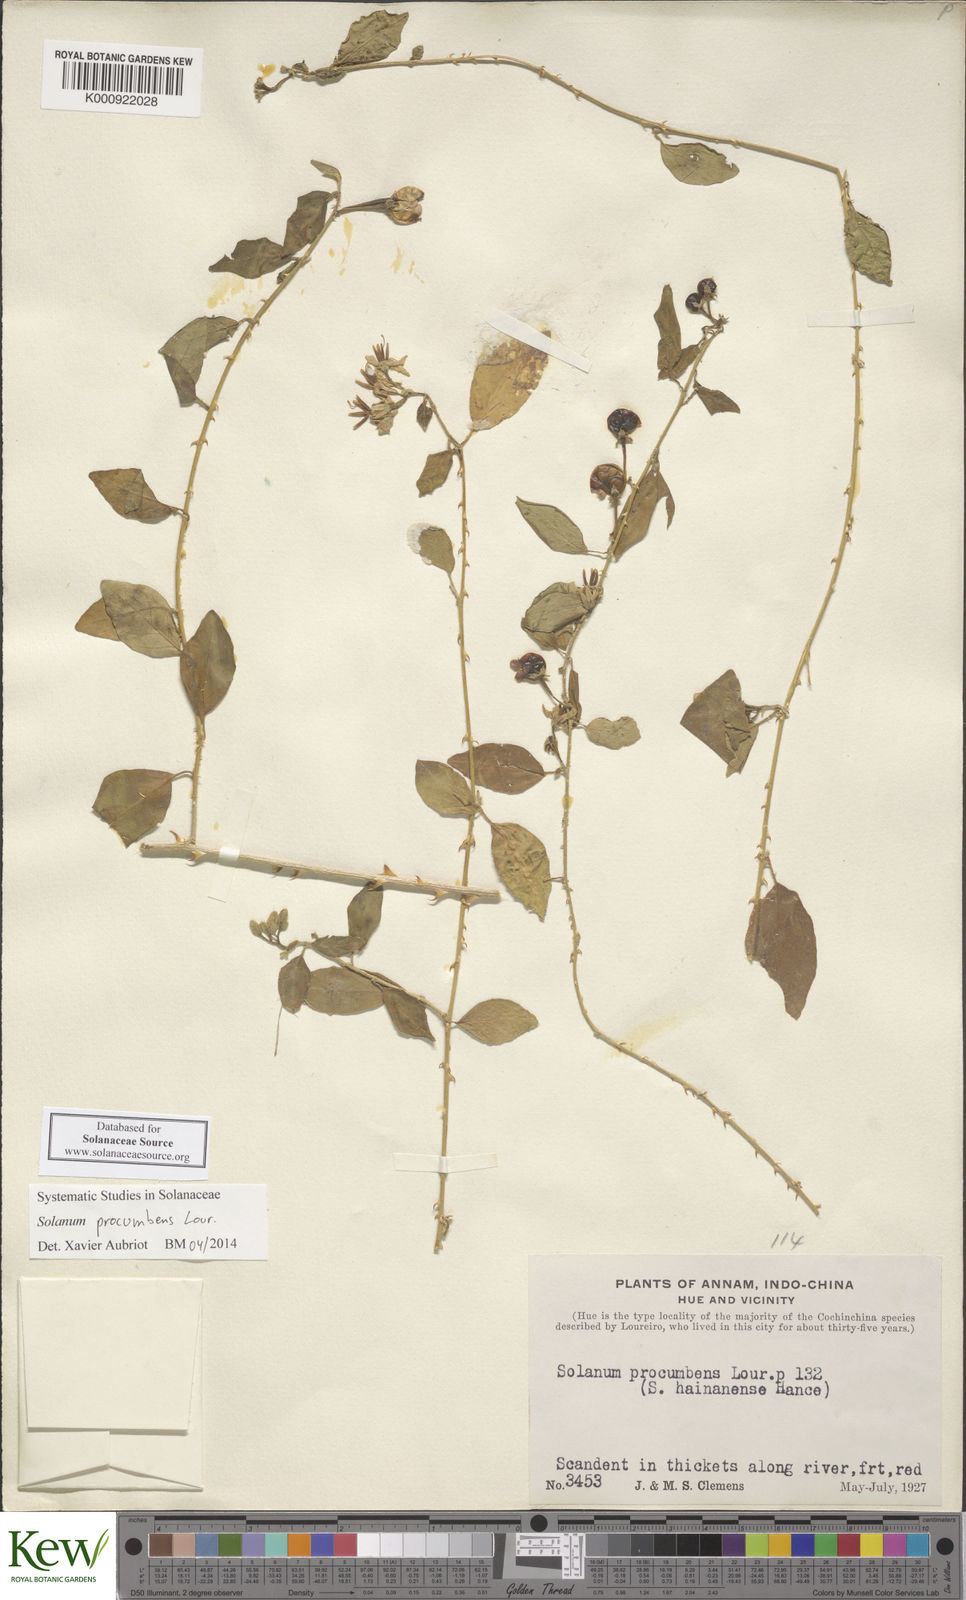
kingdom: Plantae
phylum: Tracheophyta
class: Magnoliopsida
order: Solanales
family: Solanaceae
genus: Solanum
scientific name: Solanum procumbens
